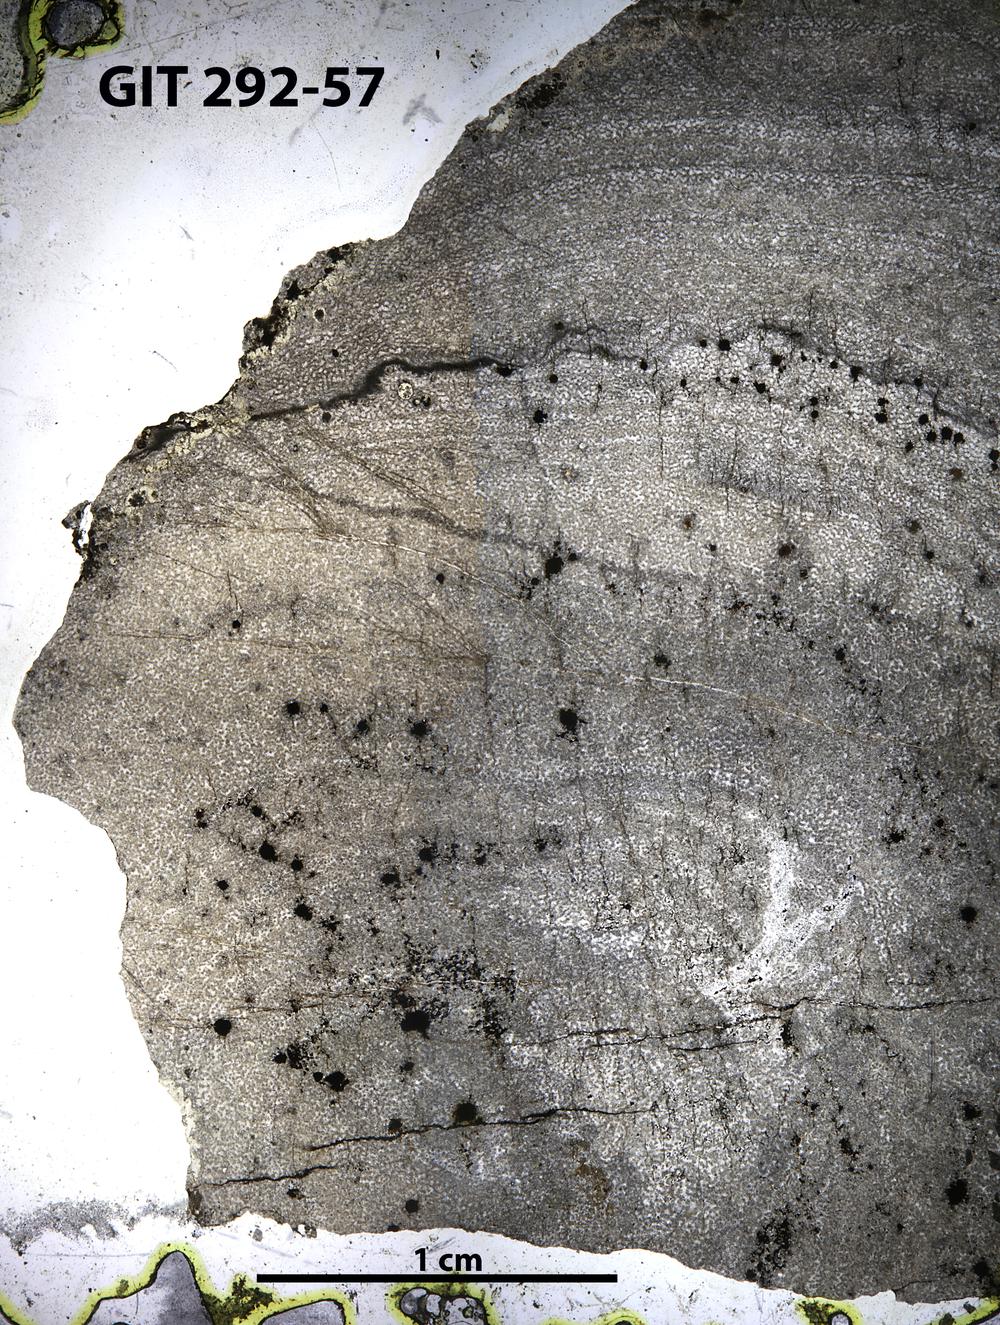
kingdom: Animalia
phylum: Porifera
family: Ecclimadictyidae
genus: Ecclimadictyon
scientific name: Ecclimadictyon Clathrodictyon microvesiculosum
